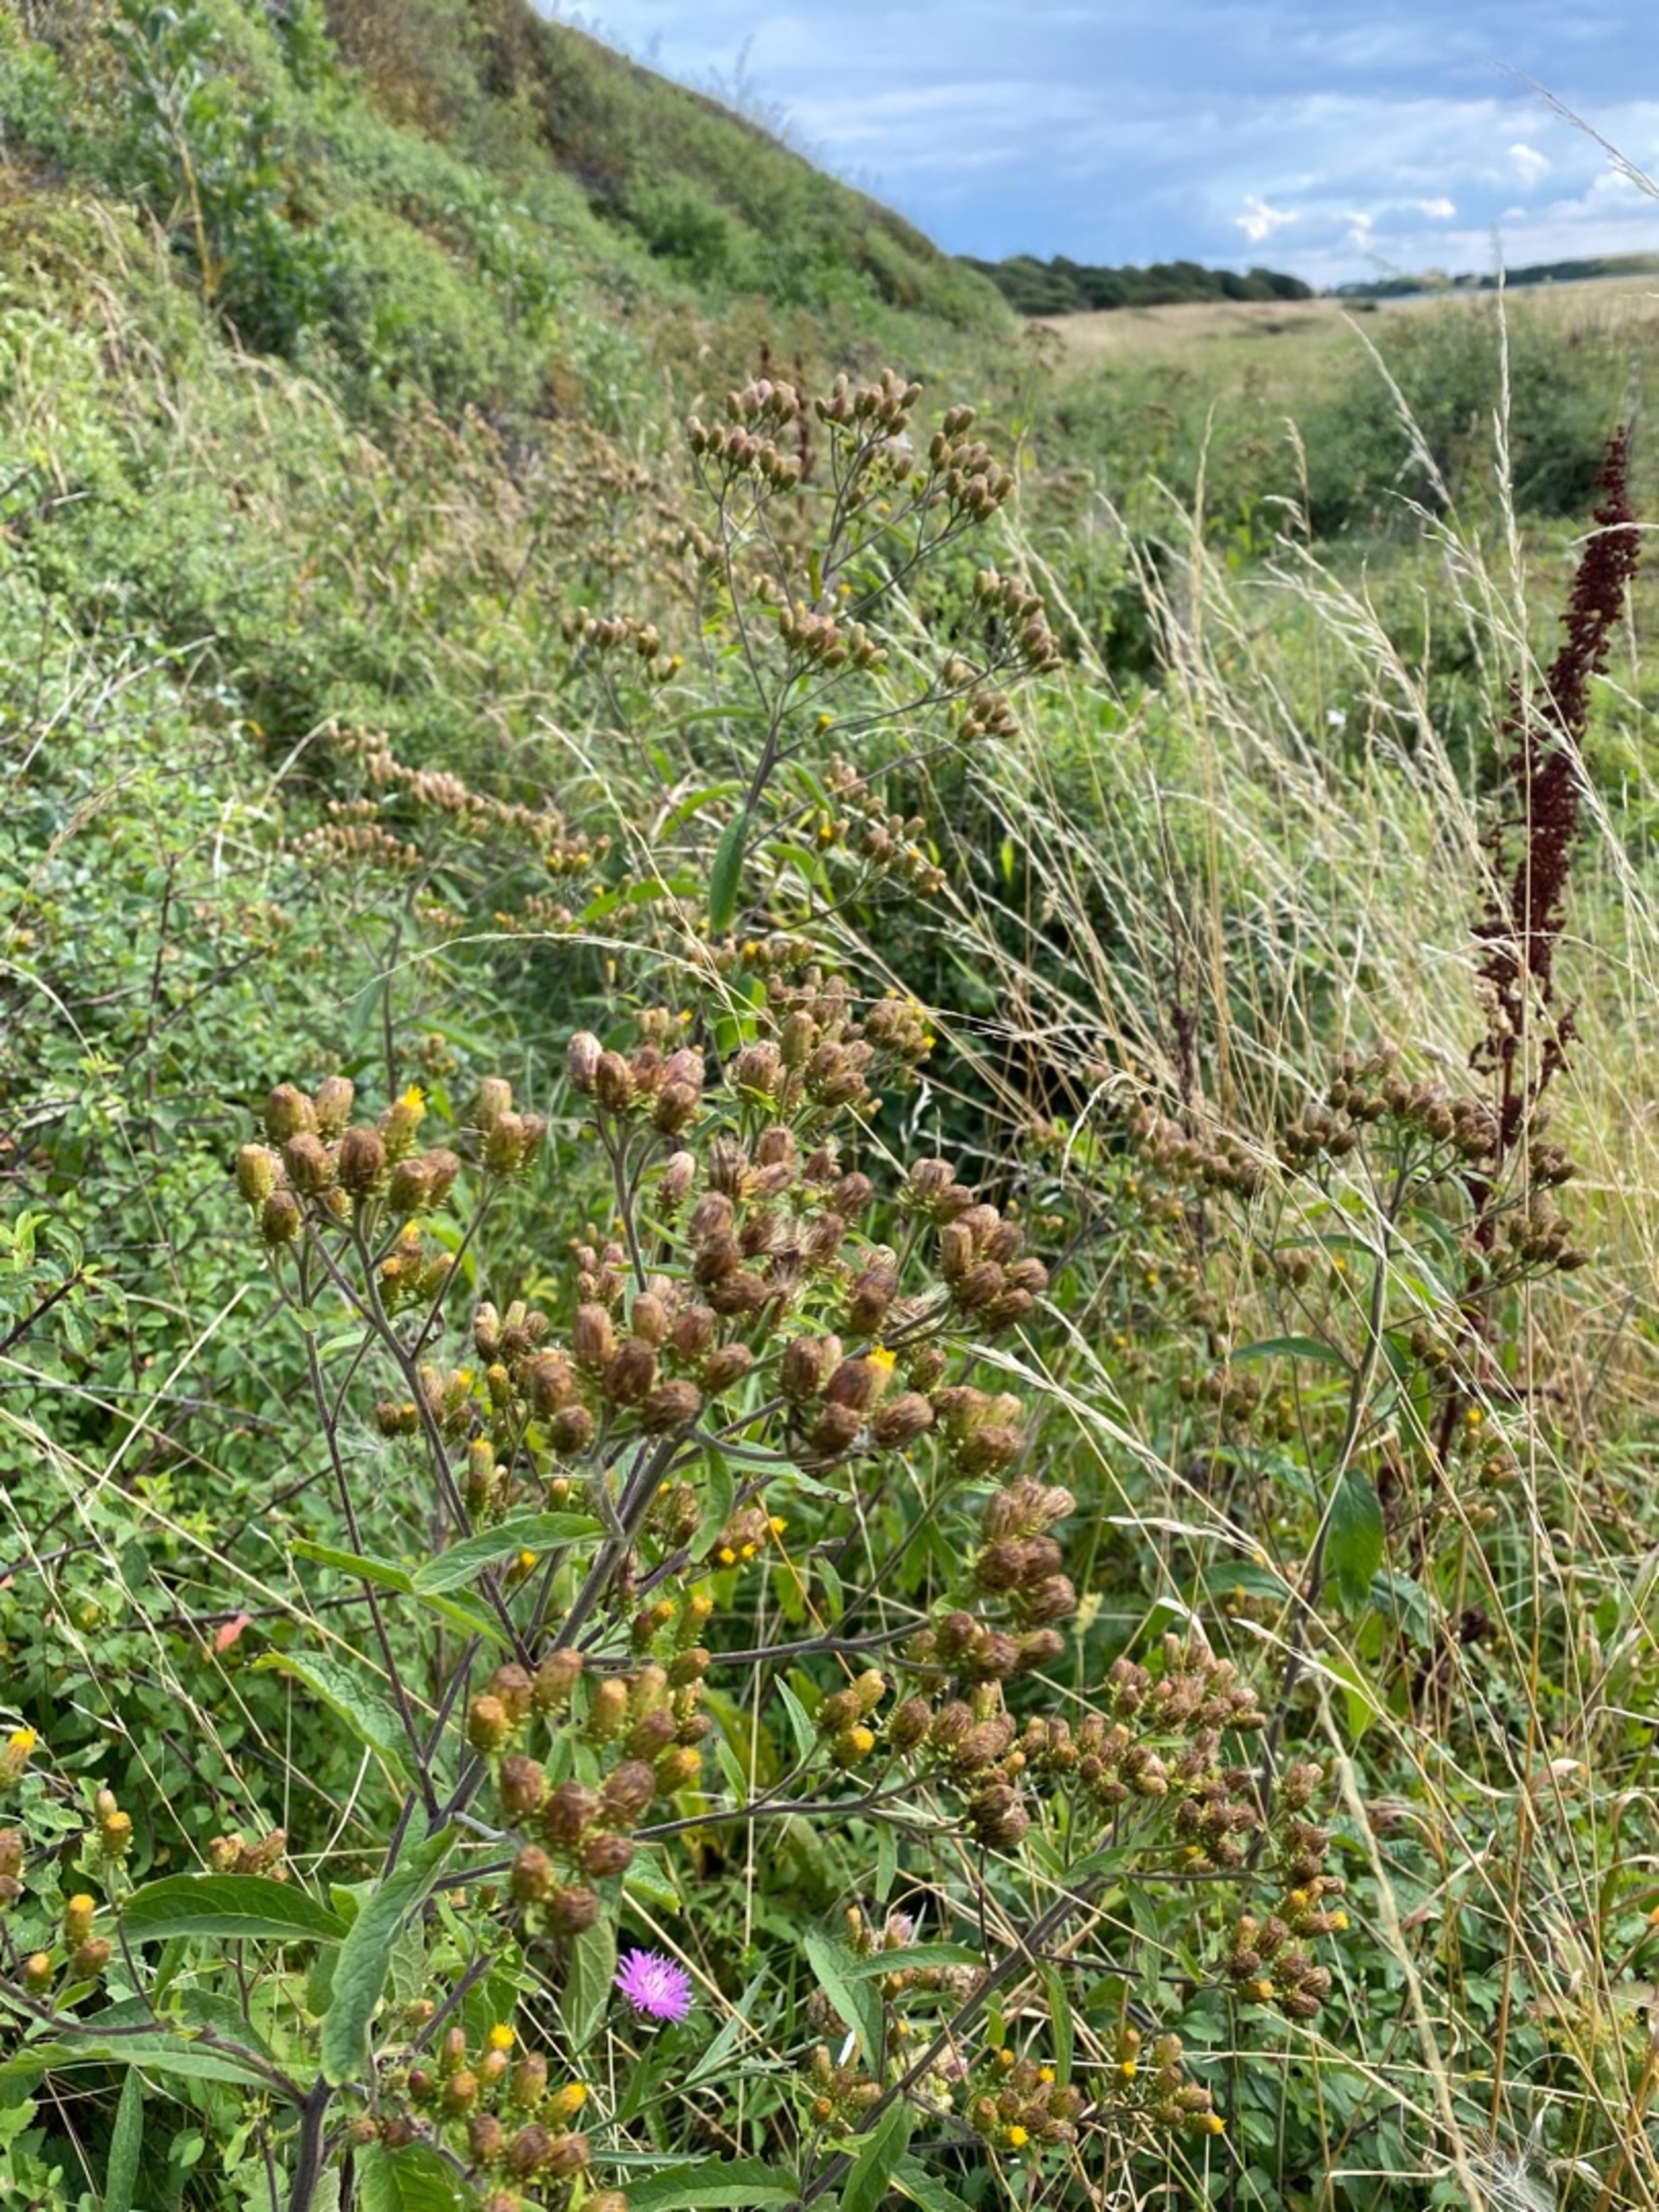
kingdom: Plantae
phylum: Tracheophyta
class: Magnoliopsida
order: Asterales
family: Asteraceae
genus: Pentanema
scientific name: Pentanema squarrosum
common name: Trekløft-alant
